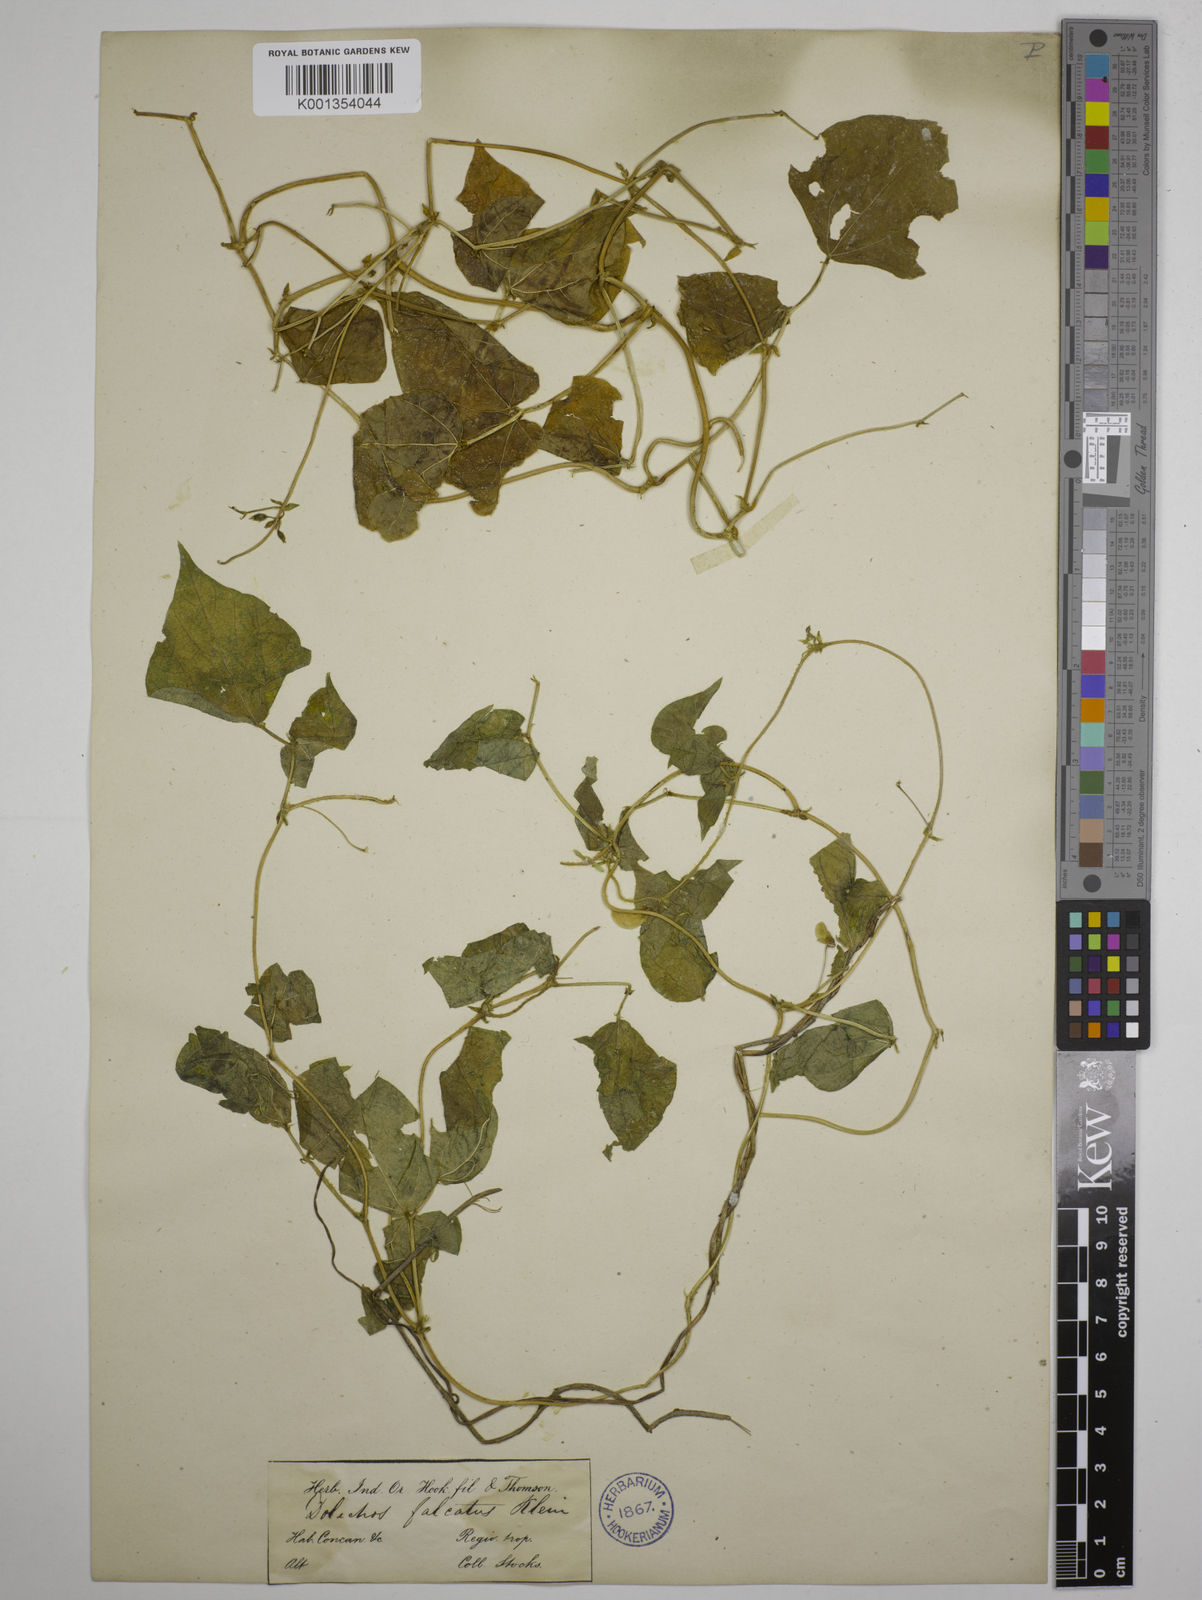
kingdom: Plantae
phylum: Tracheophyta
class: Magnoliopsida
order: Fabales
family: Fabaceae
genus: Dolichos
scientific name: Dolichos
